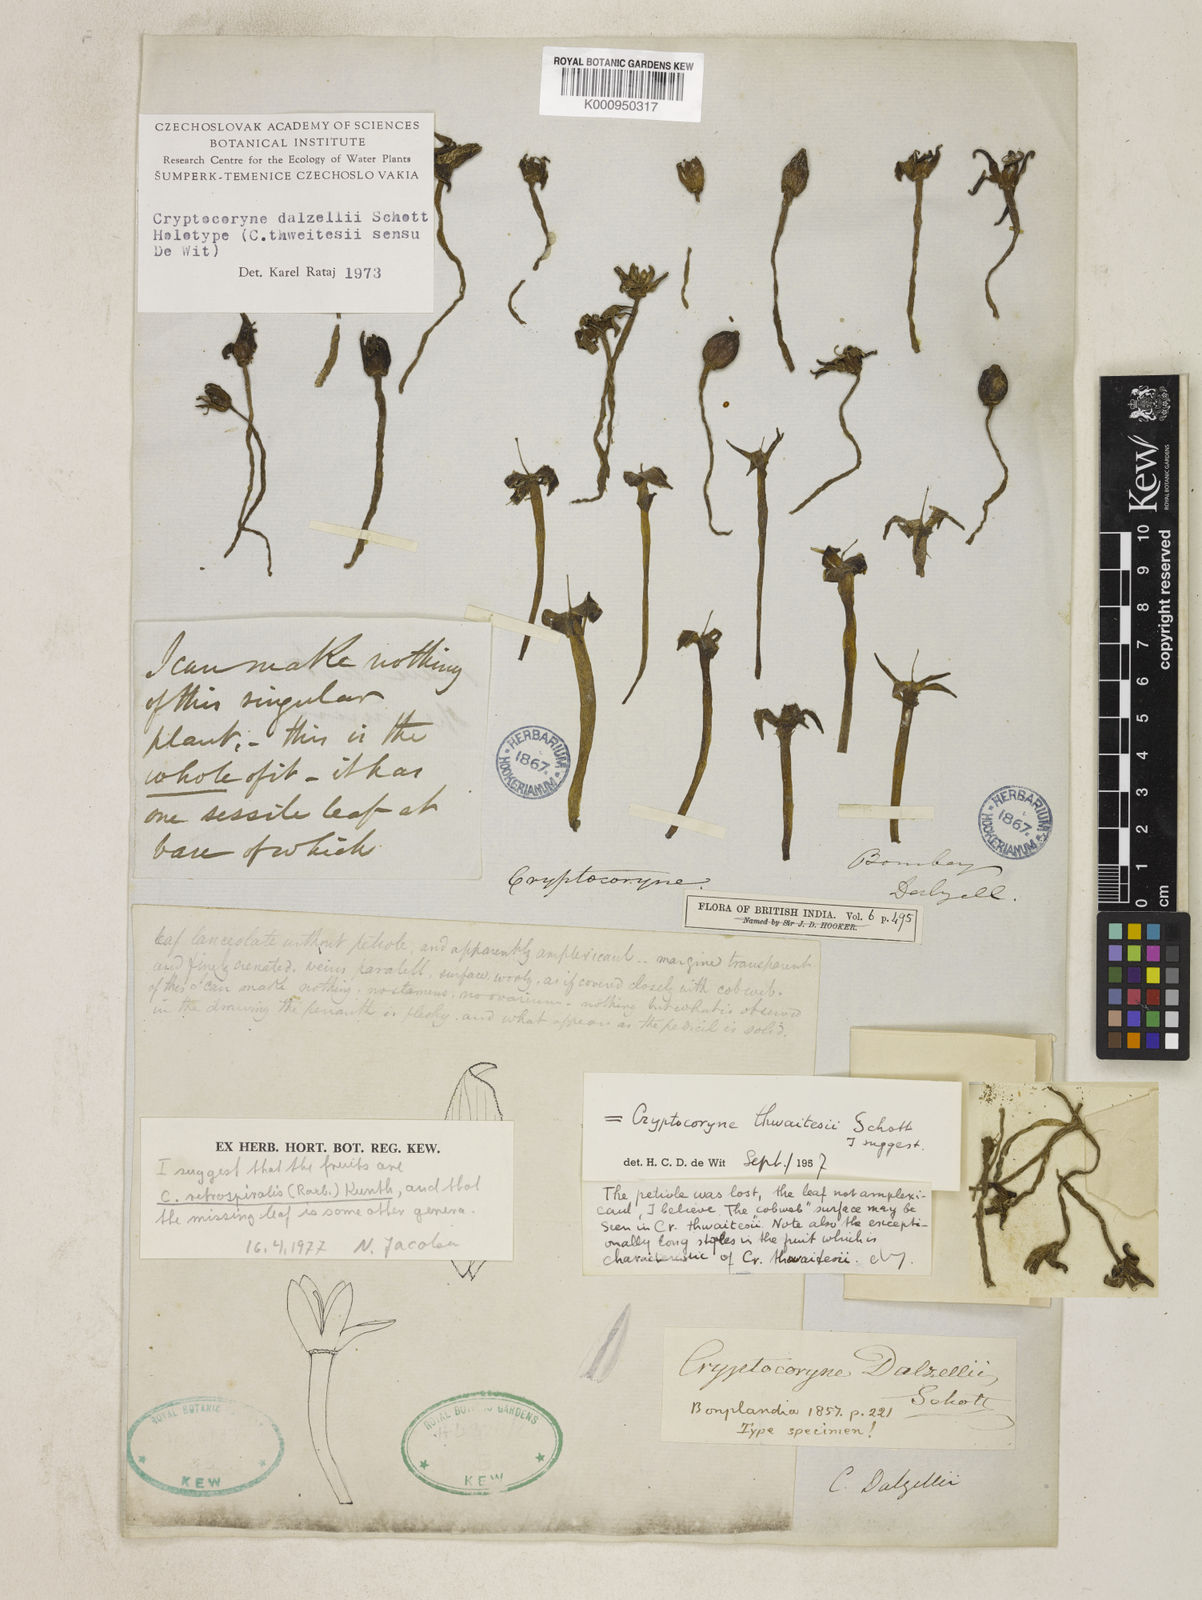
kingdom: Plantae
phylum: Tracheophyta
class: Liliopsida
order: Alismatales
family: Araceae
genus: Cryptocoryne
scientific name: Cryptocoryne retrospiralis
